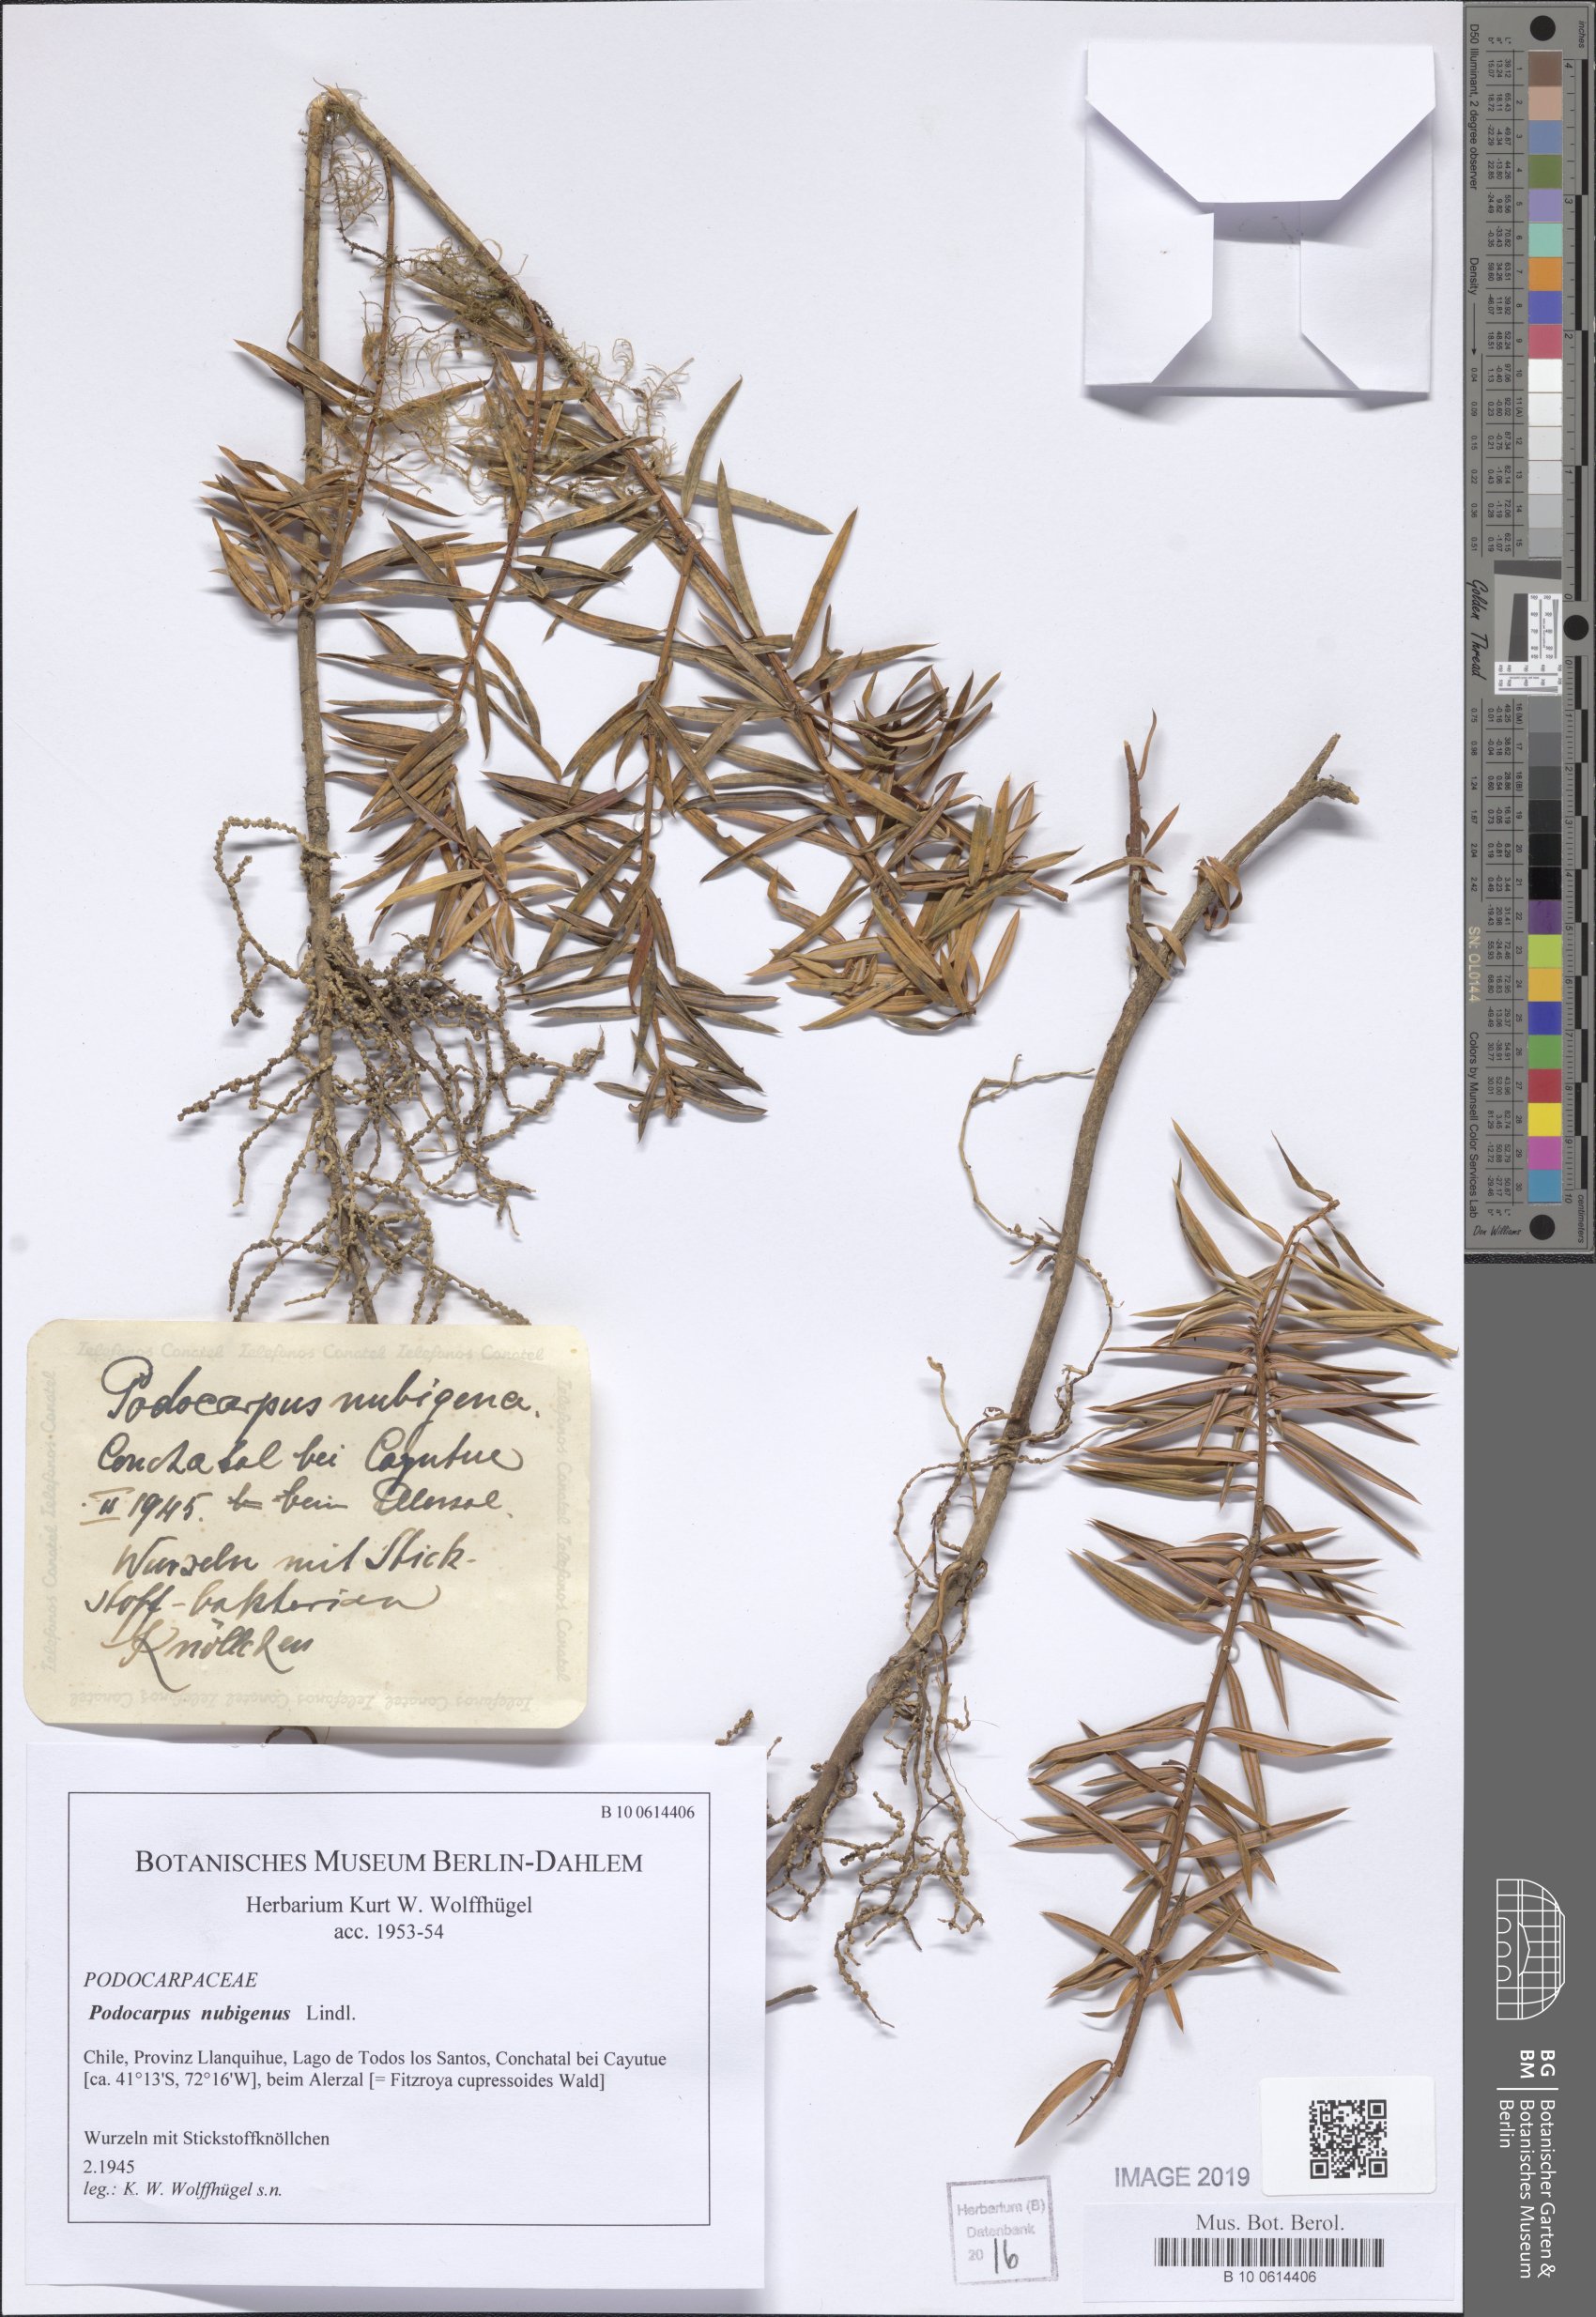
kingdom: Plantae
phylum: Tracheophyta
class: Pinopsida
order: Pinales
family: Podocarpaceae
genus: Podocarpus
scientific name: Podocarpus nubigenus
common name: Cloud podocarp
